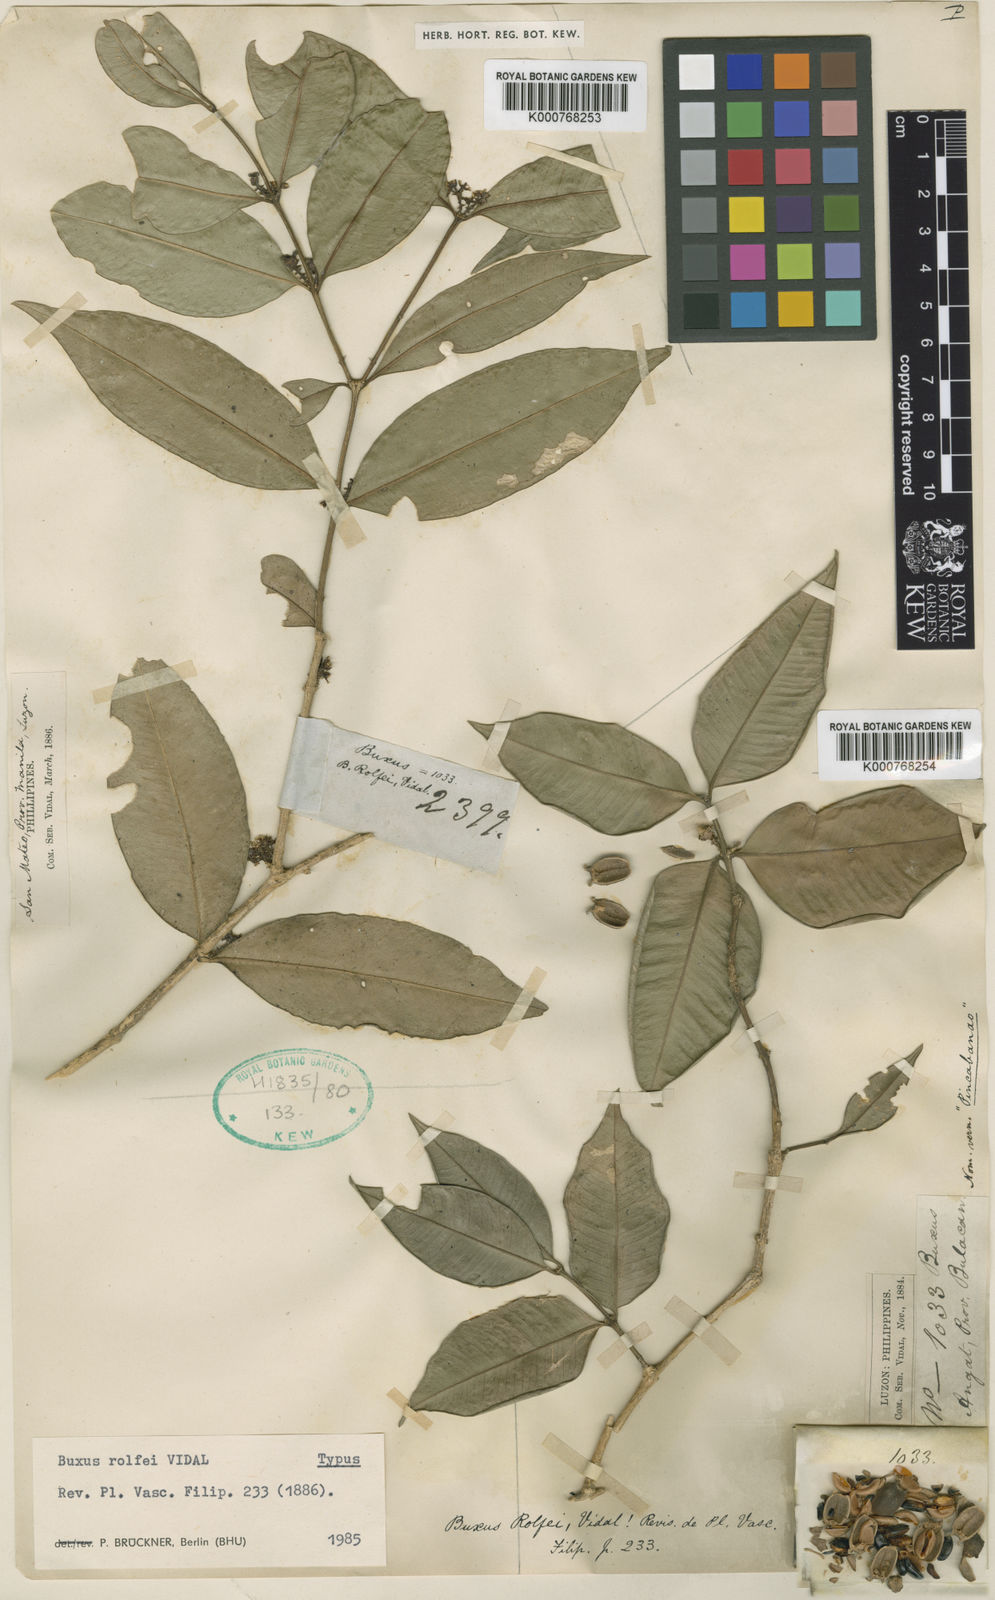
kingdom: Plantae
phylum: Tracheophyta
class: Magnoliopsida
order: Buxales
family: Buxaceae
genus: Buxus
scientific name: Buxus rolfei
